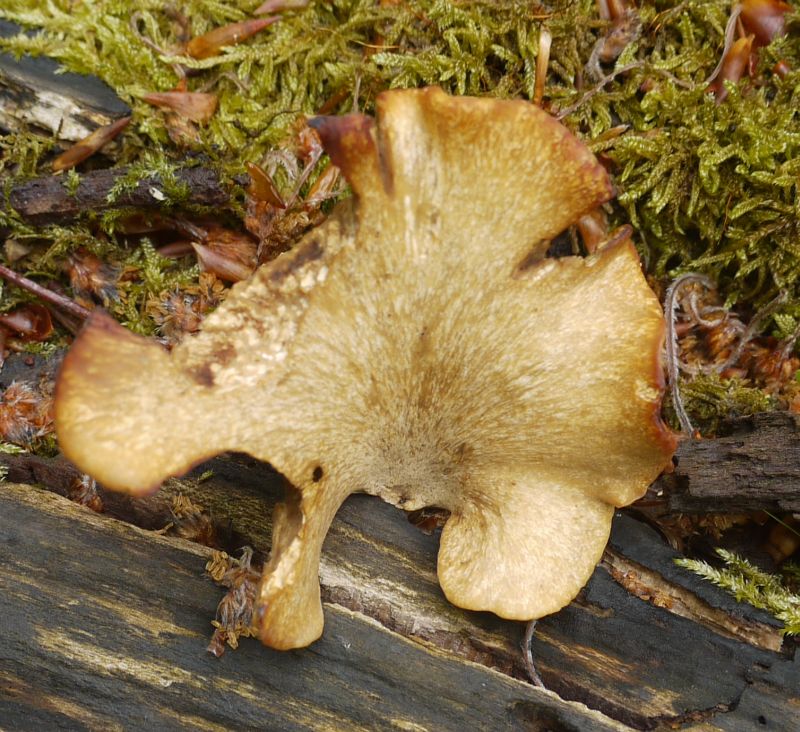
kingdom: Fungi
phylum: Basidiomycota
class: Agaricomycetes
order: Polyporales
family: Polyporaceae
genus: Cerioporus
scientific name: Cerioporus varius
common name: foranderlig stilkporesvamp
